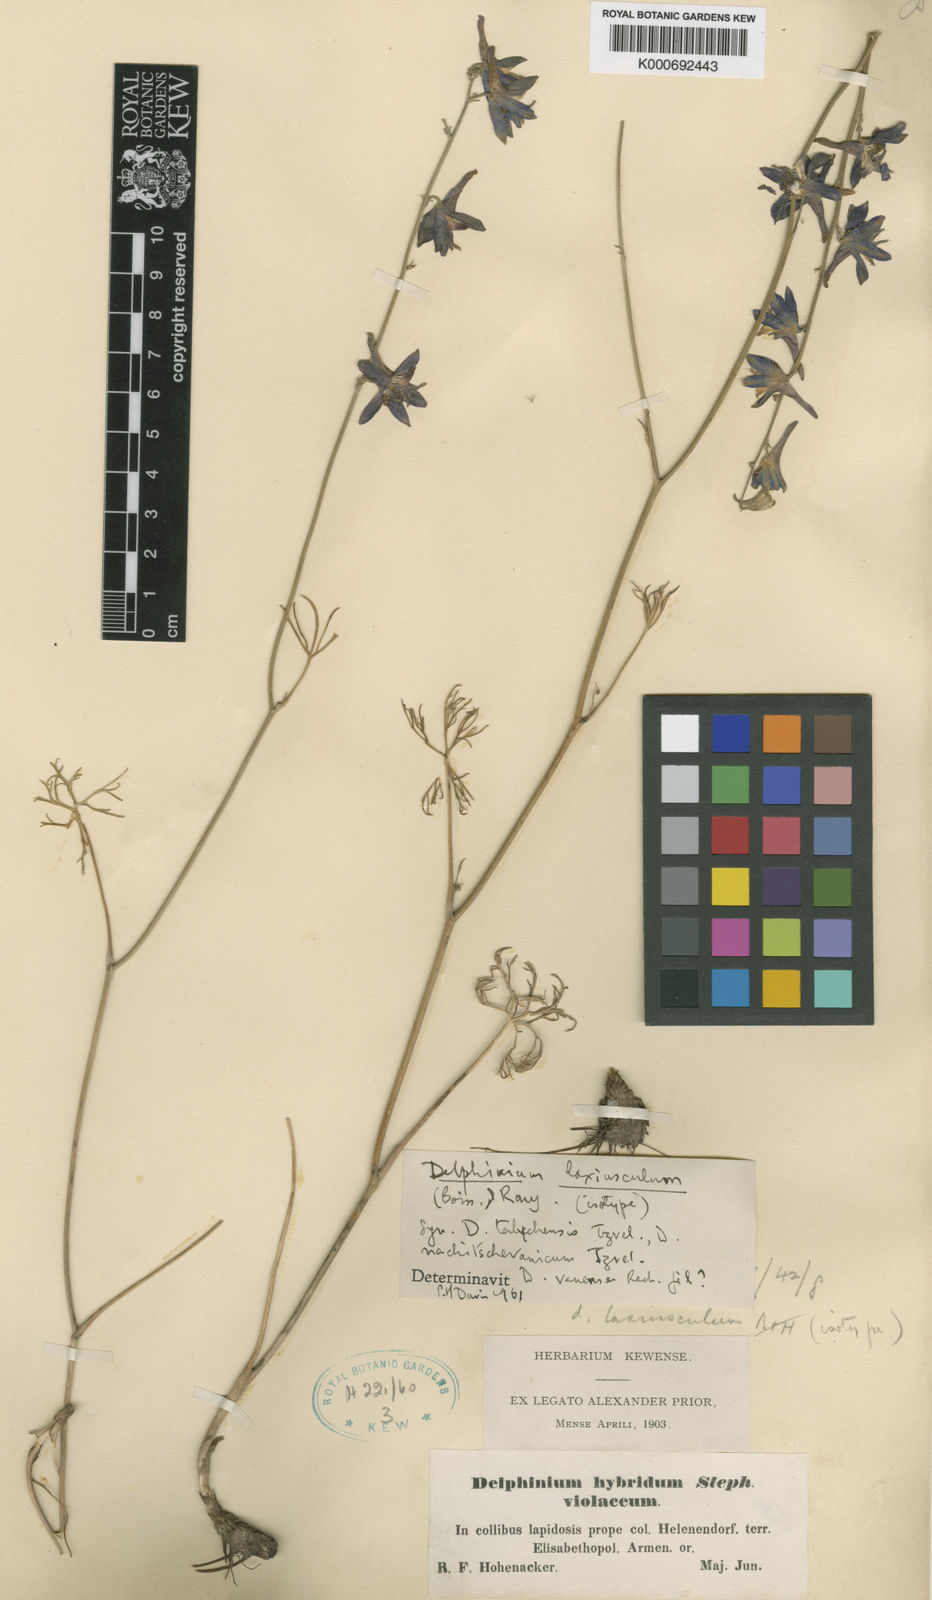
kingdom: Plantae
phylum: Tracheophyta
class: Magnoliopsida
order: Ranunculales
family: Ranunculaceae
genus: Delphinium
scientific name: Delphinium
